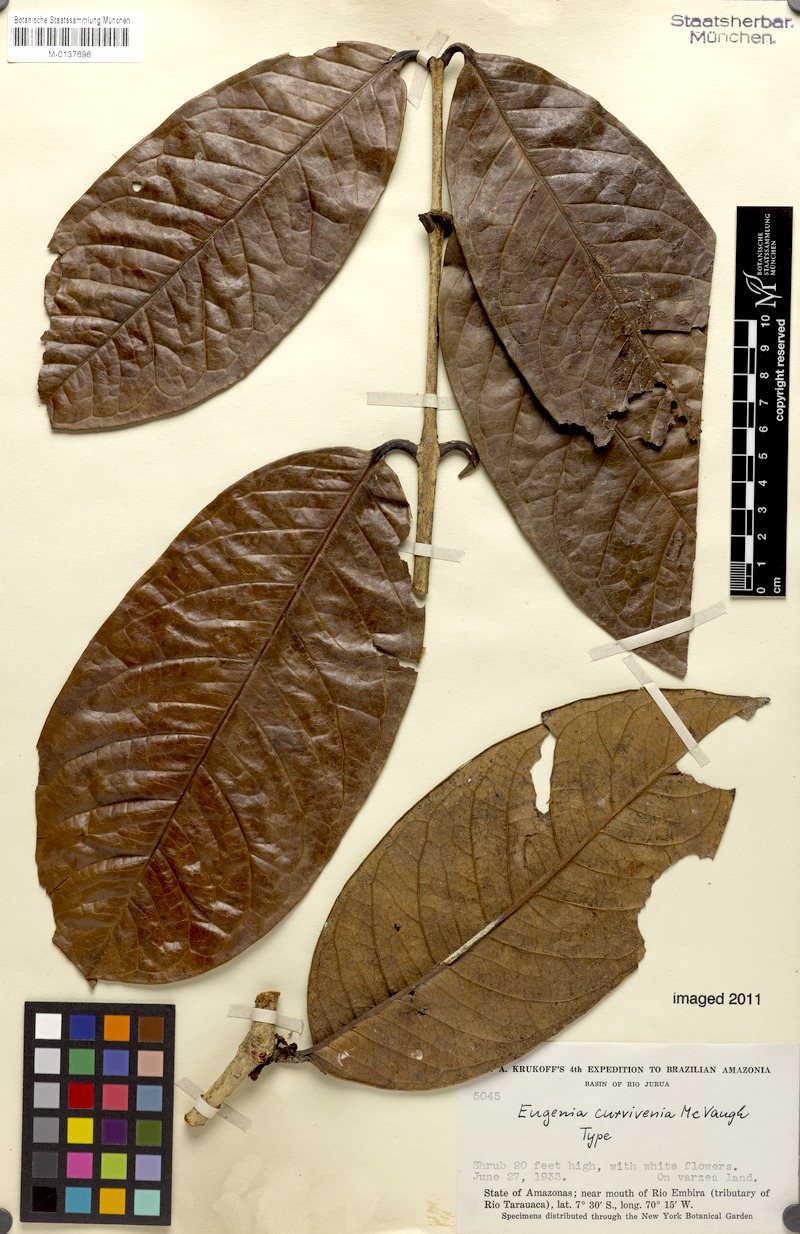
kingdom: Plantae
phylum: Tracheophyta
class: Magnoliopsida
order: Myrtales
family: Myrtaceae
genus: Eugenia
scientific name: Eugenia curvivenia
